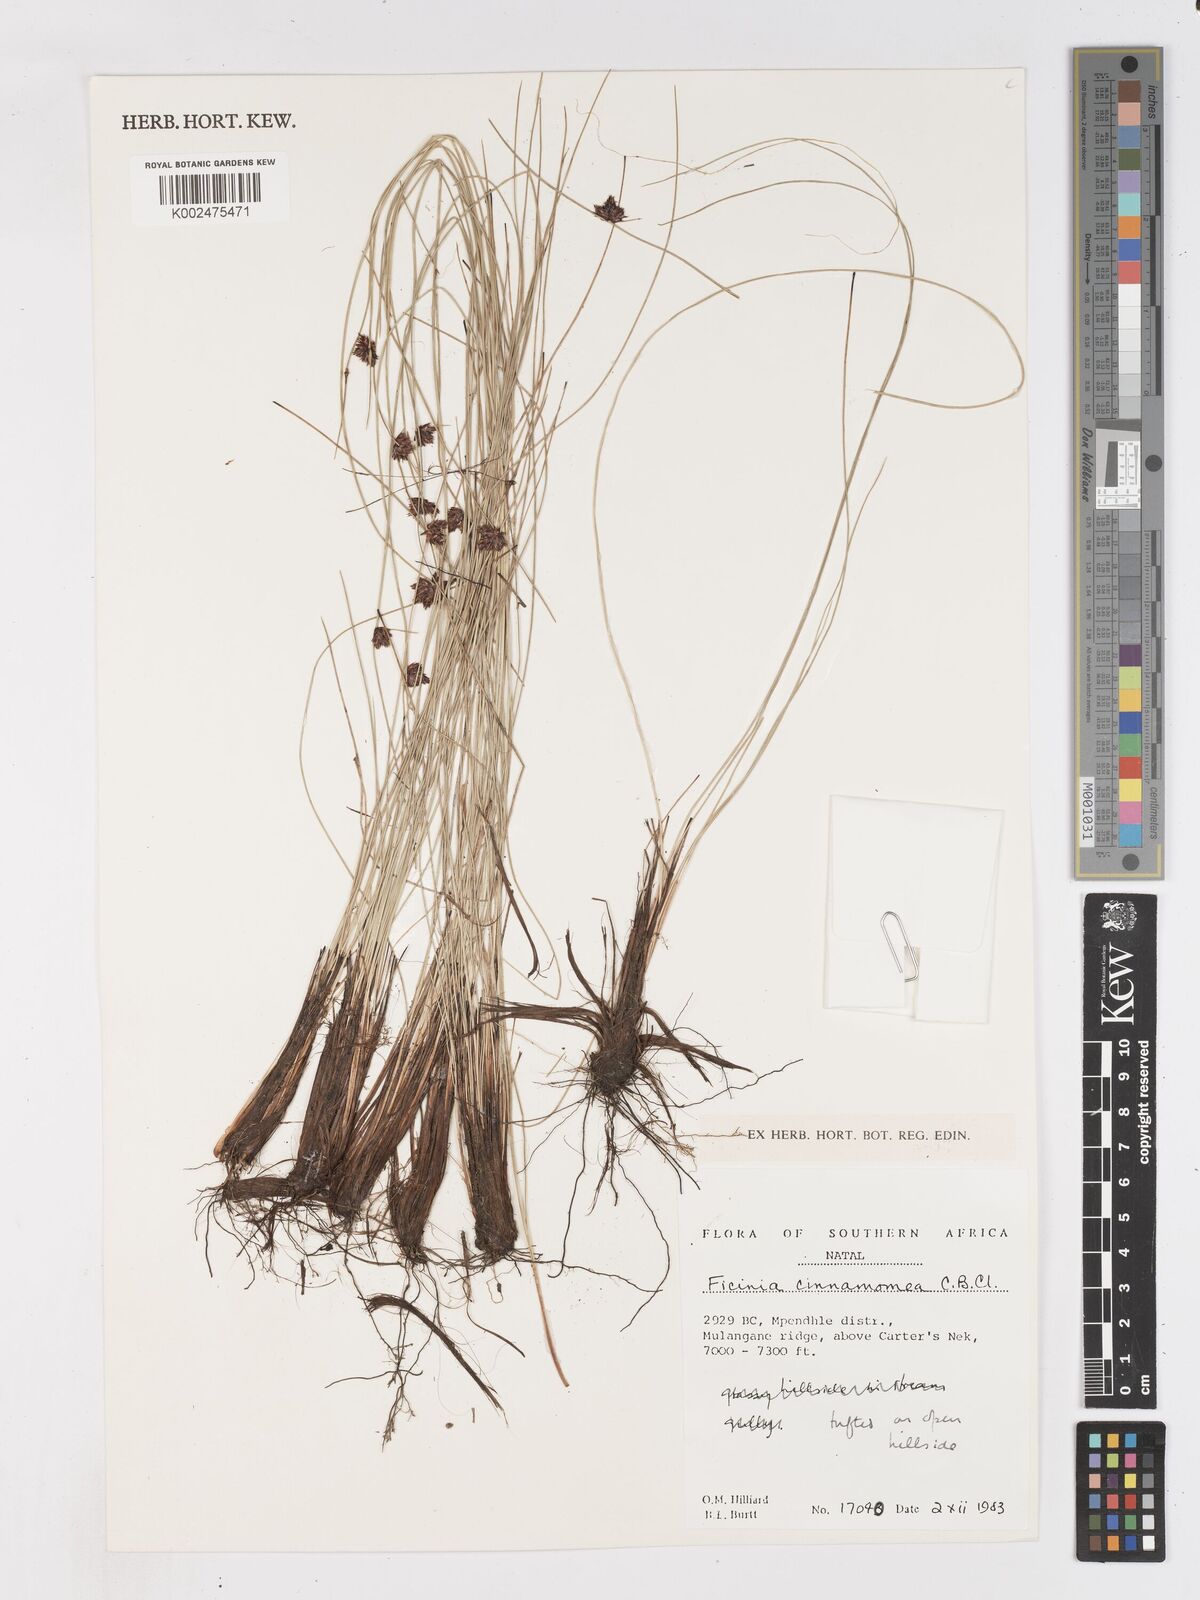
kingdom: Plantae
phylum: Tracheophyta
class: Liliopsida
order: Poales
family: Cyperaceae
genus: Ficinia
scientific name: Ficinia cinnamomea
